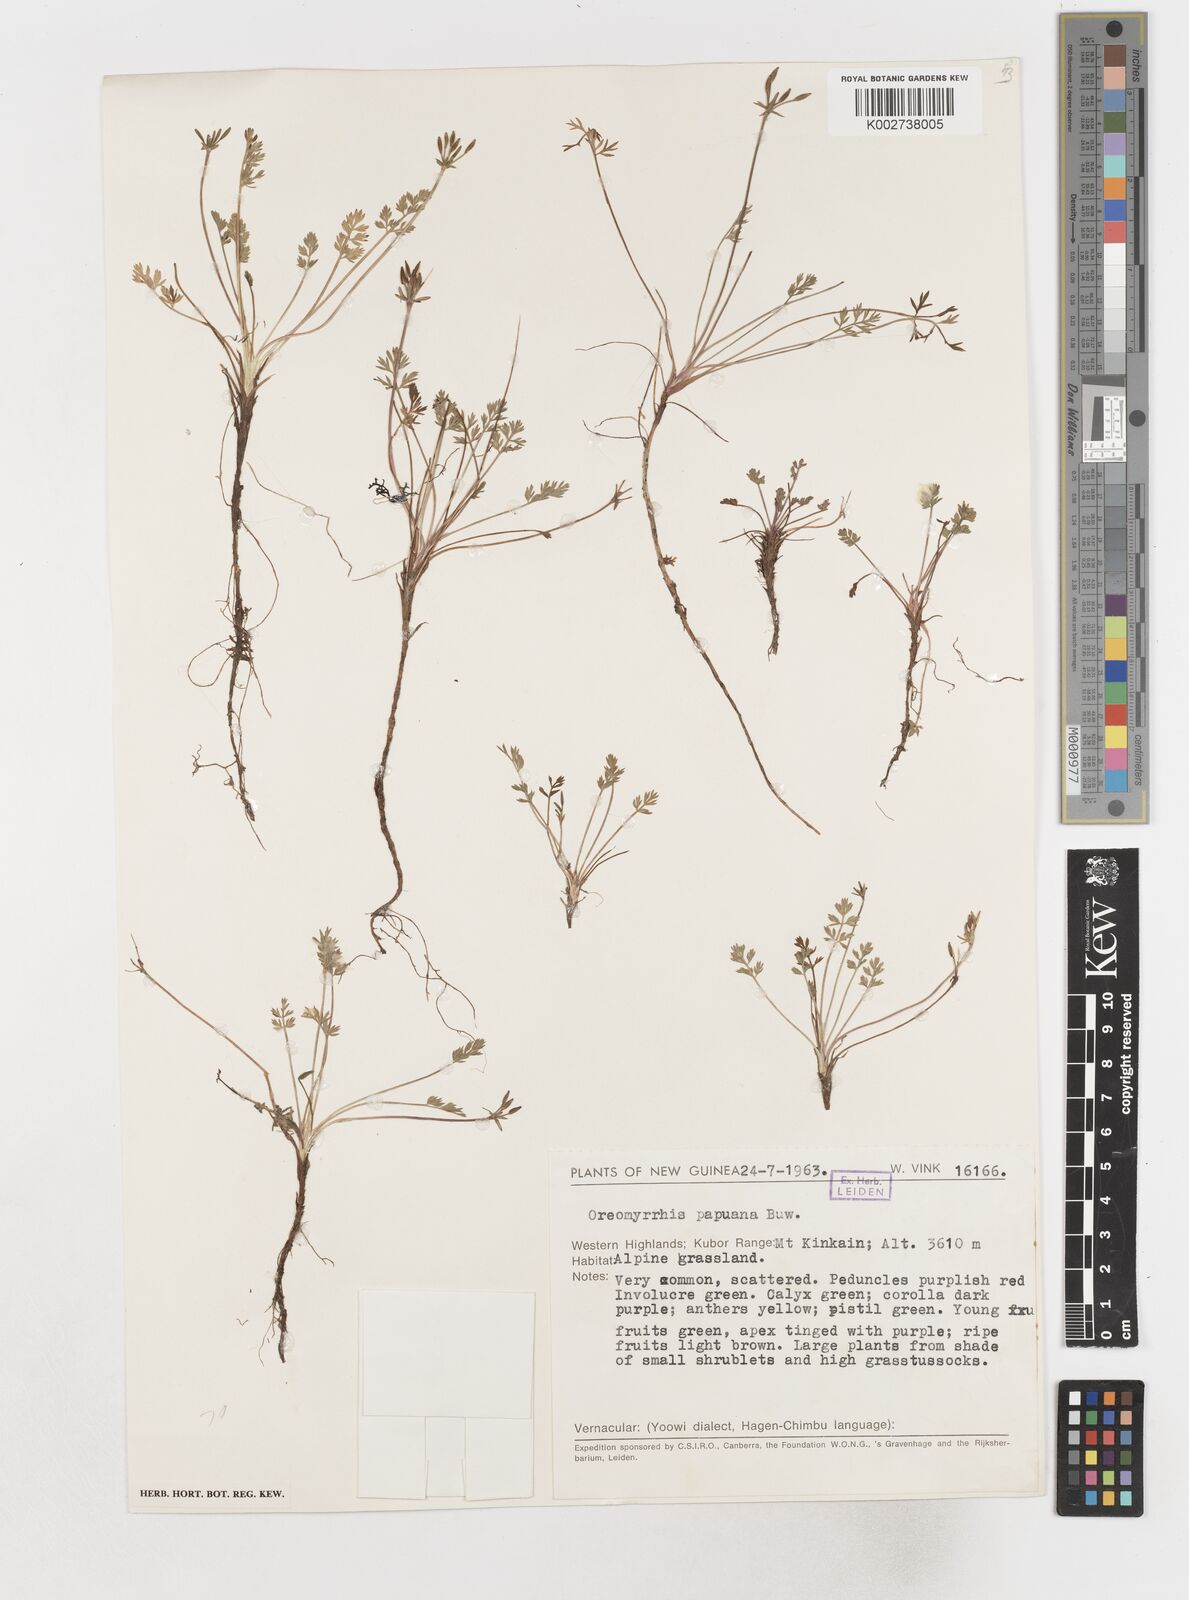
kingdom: Plantae
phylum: Tracheophyta
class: Magnoliopsida
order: Apiales
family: Apiaceae
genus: Chaerophyllum
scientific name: Chaerophyllum papuanum
